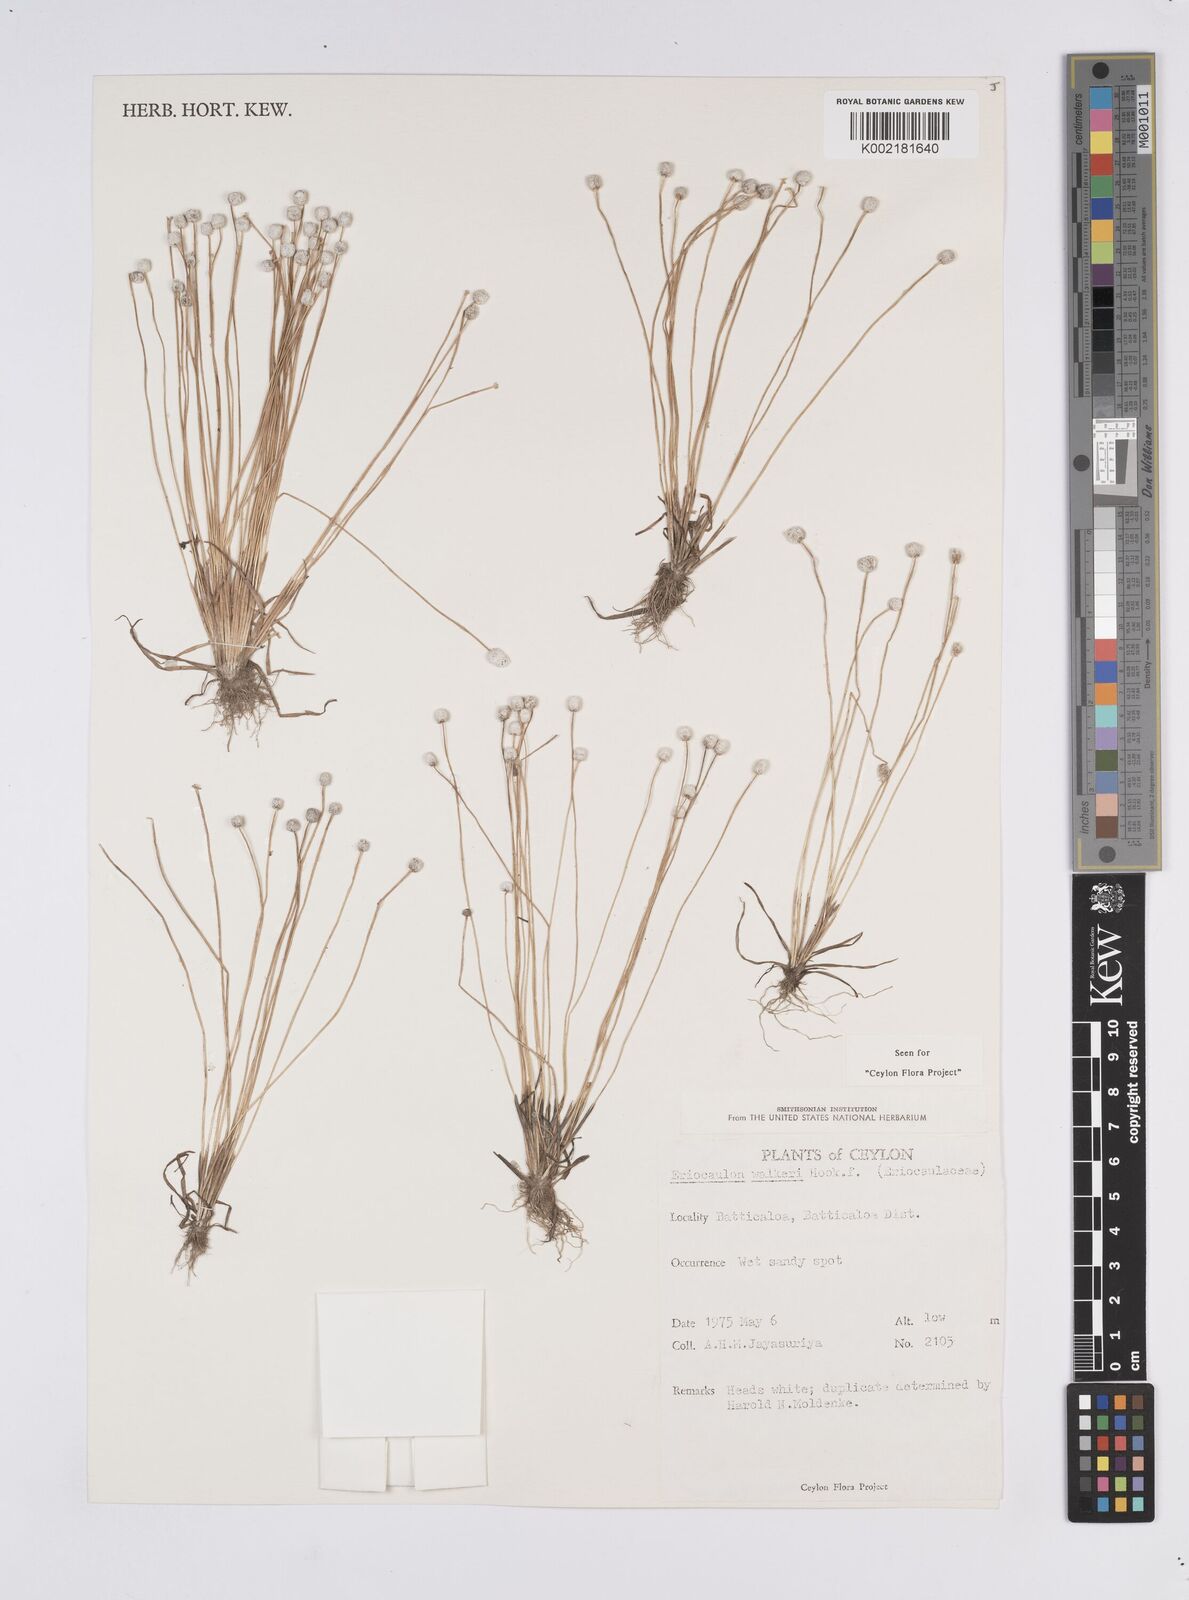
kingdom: Plantae
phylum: Tracheophyta
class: Liliopsida
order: Poales
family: Eriocaulaceae
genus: Eriocaulon
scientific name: Eriocaulon walkeri
